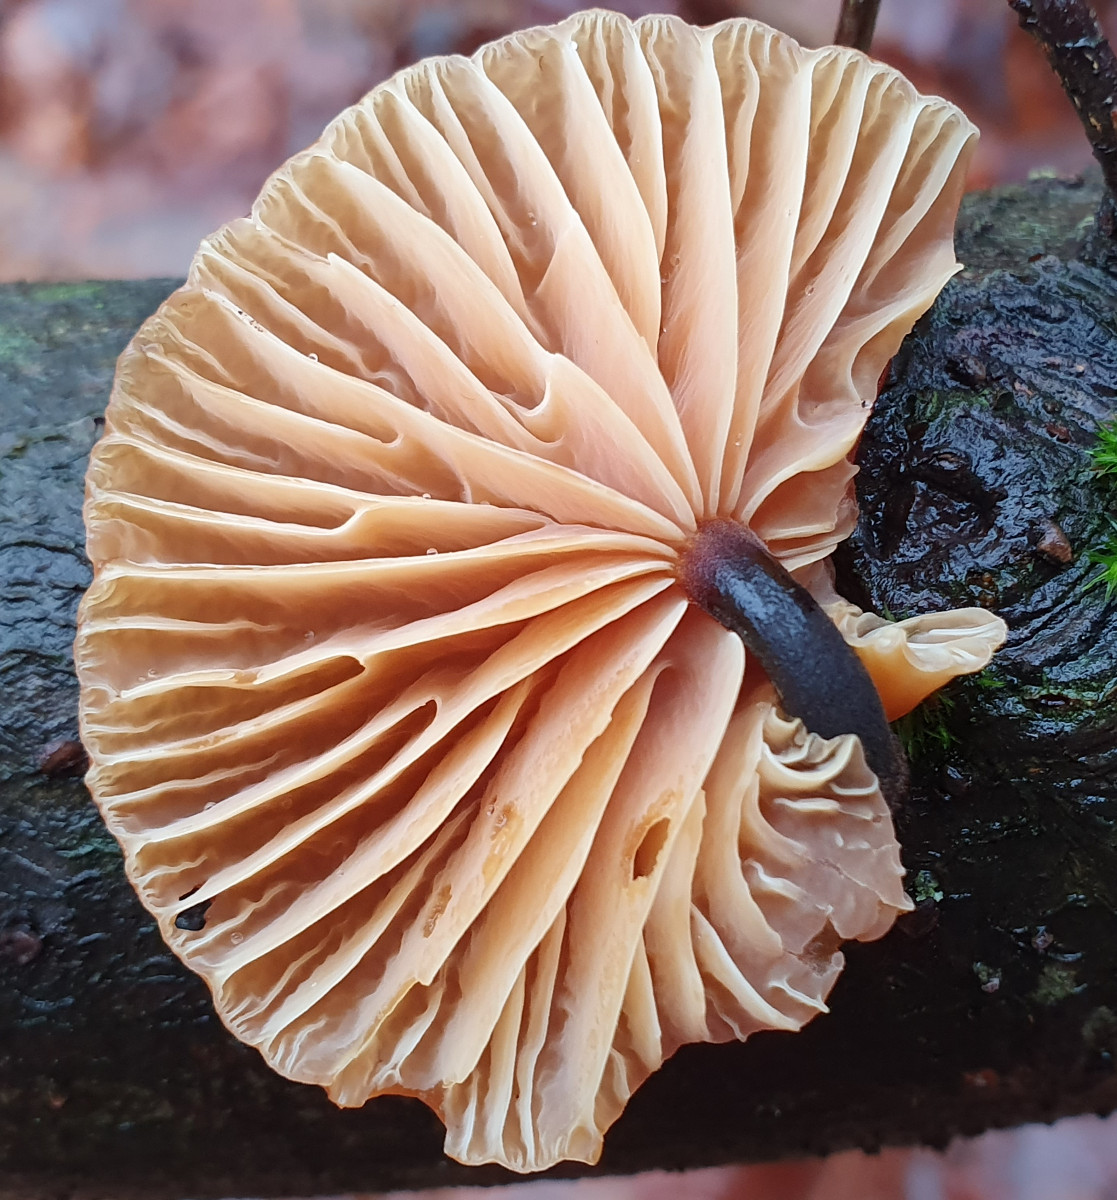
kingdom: Fungi
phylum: Basidiomycota
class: Agaricomycetes
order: Agaricales
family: Physalacriaceae
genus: Flammulina
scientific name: Flammulina velutipes
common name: gul fløjlsfod
